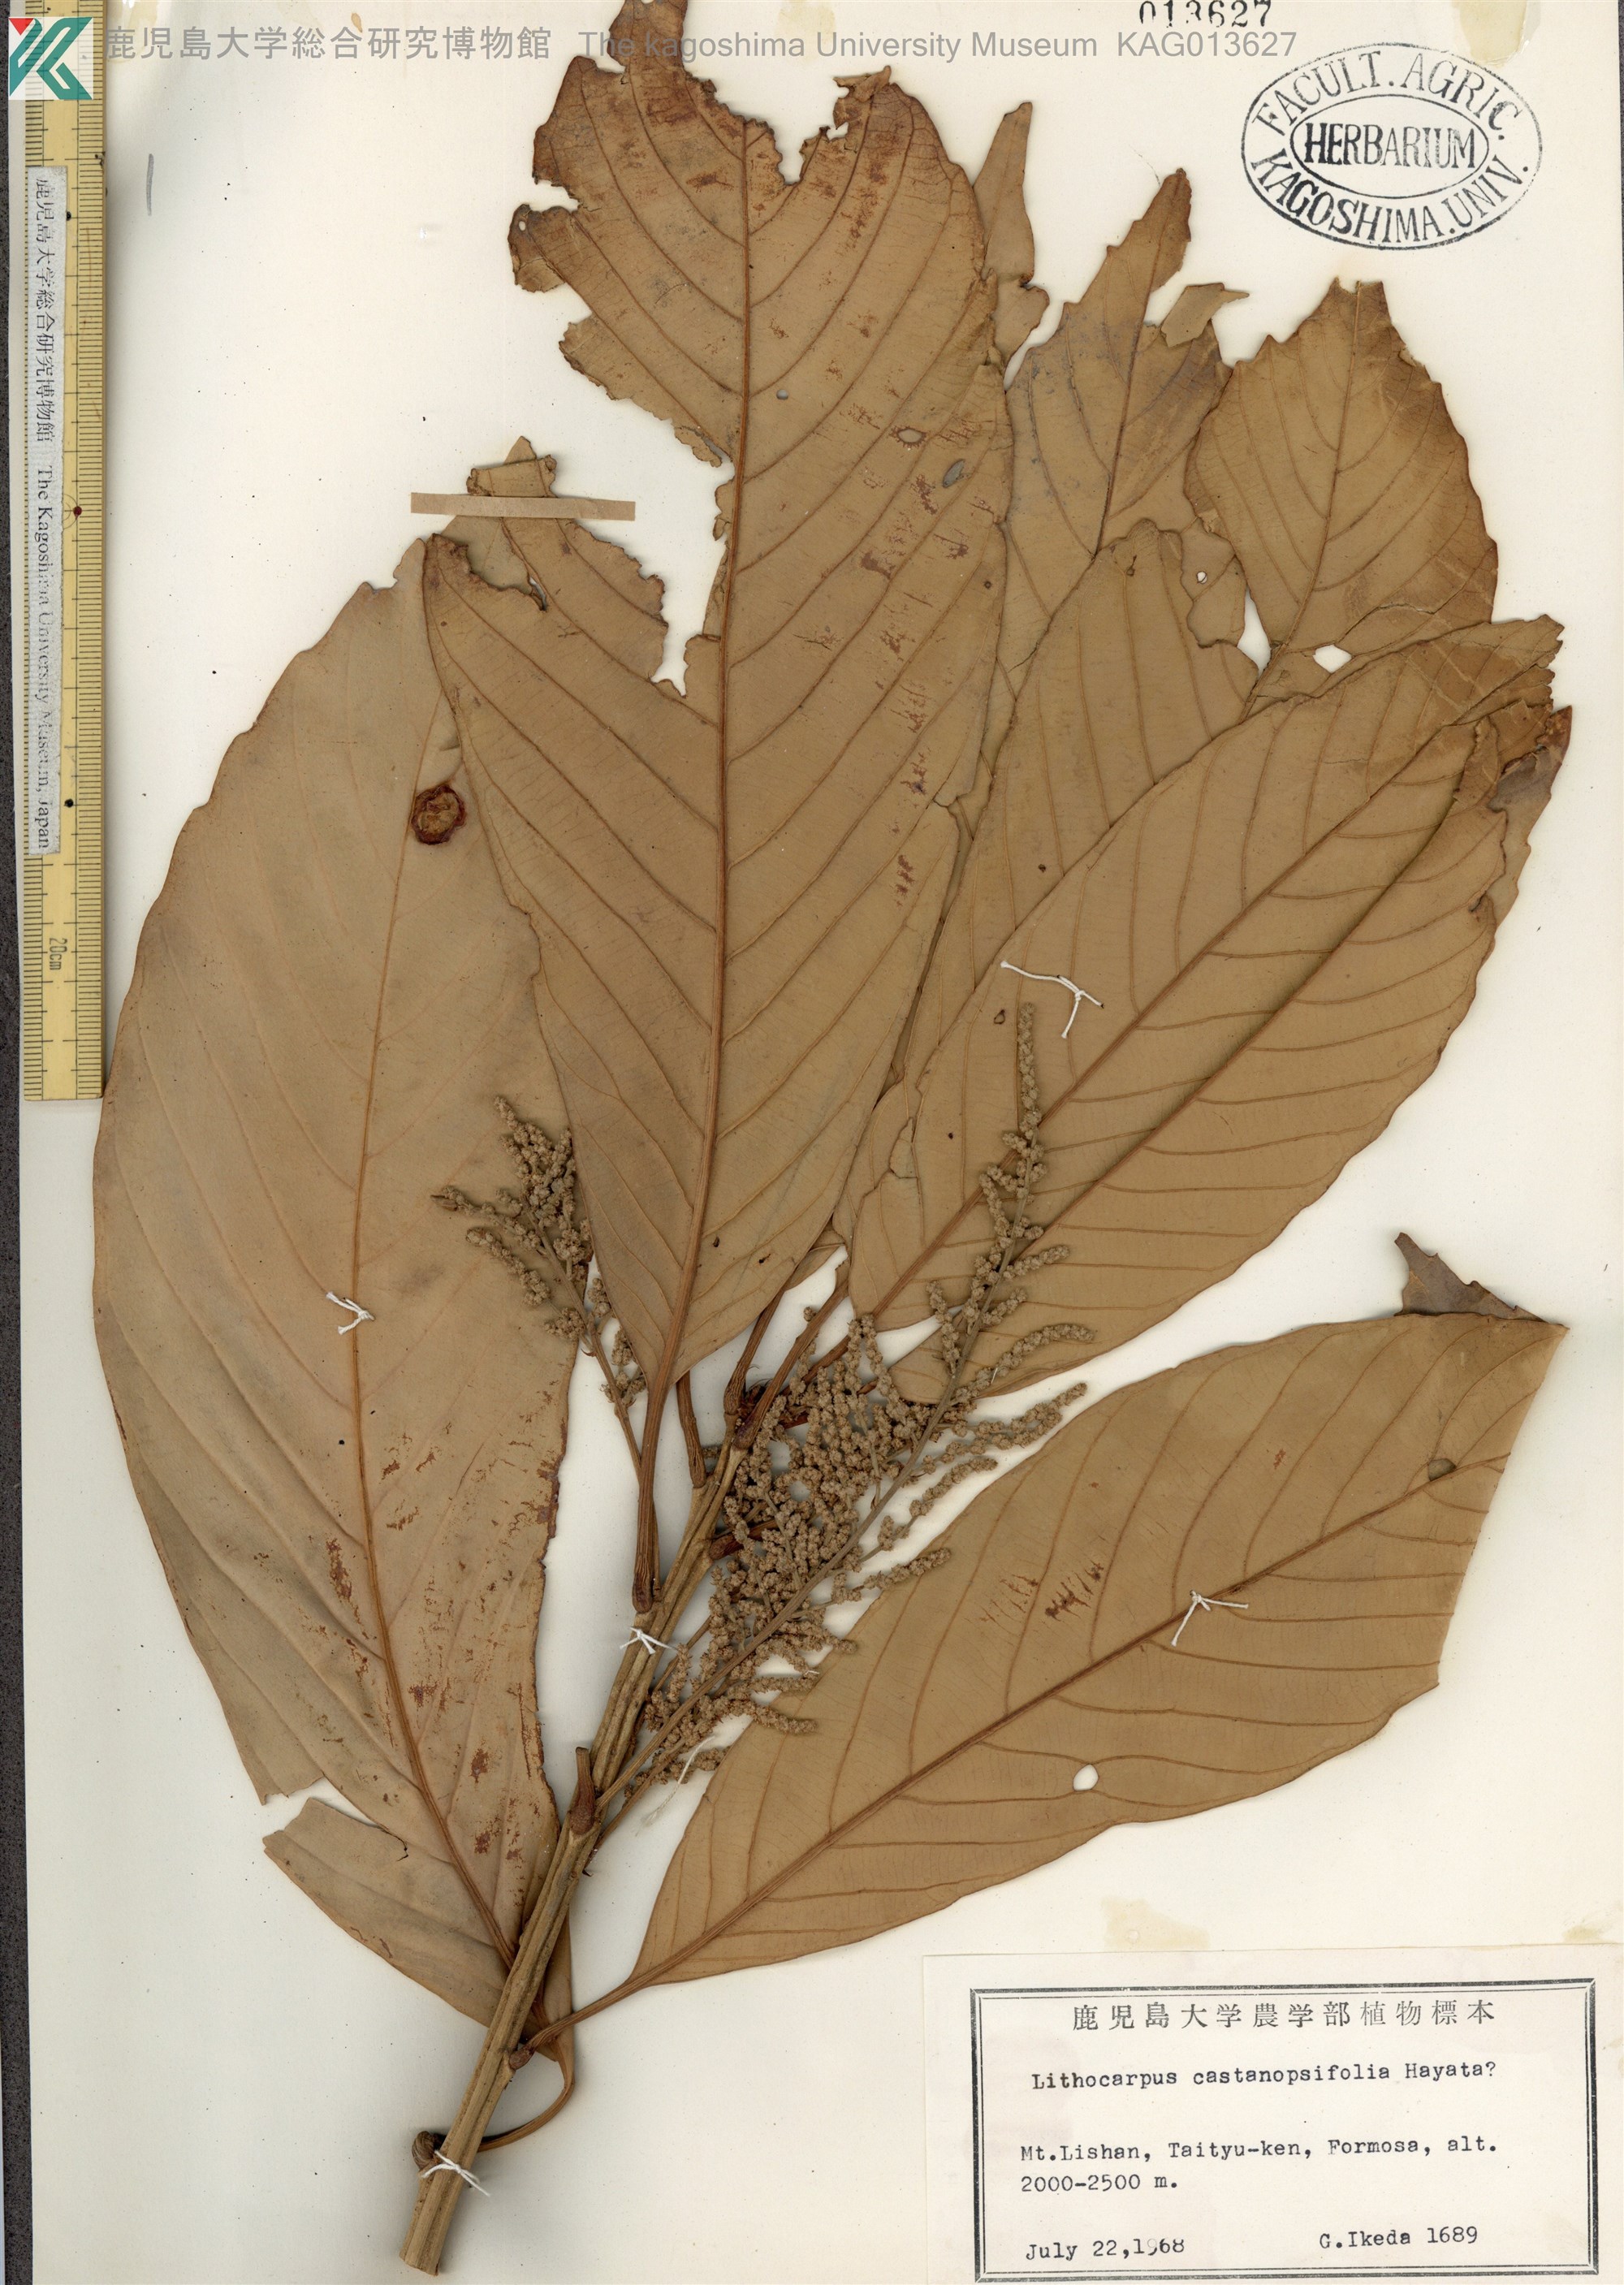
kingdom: Plantae
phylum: Tracheophyta
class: Magnoliopsida
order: Fagales
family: Fagaceae
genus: Lithocarpus
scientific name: Lithocarpus kawakamii
